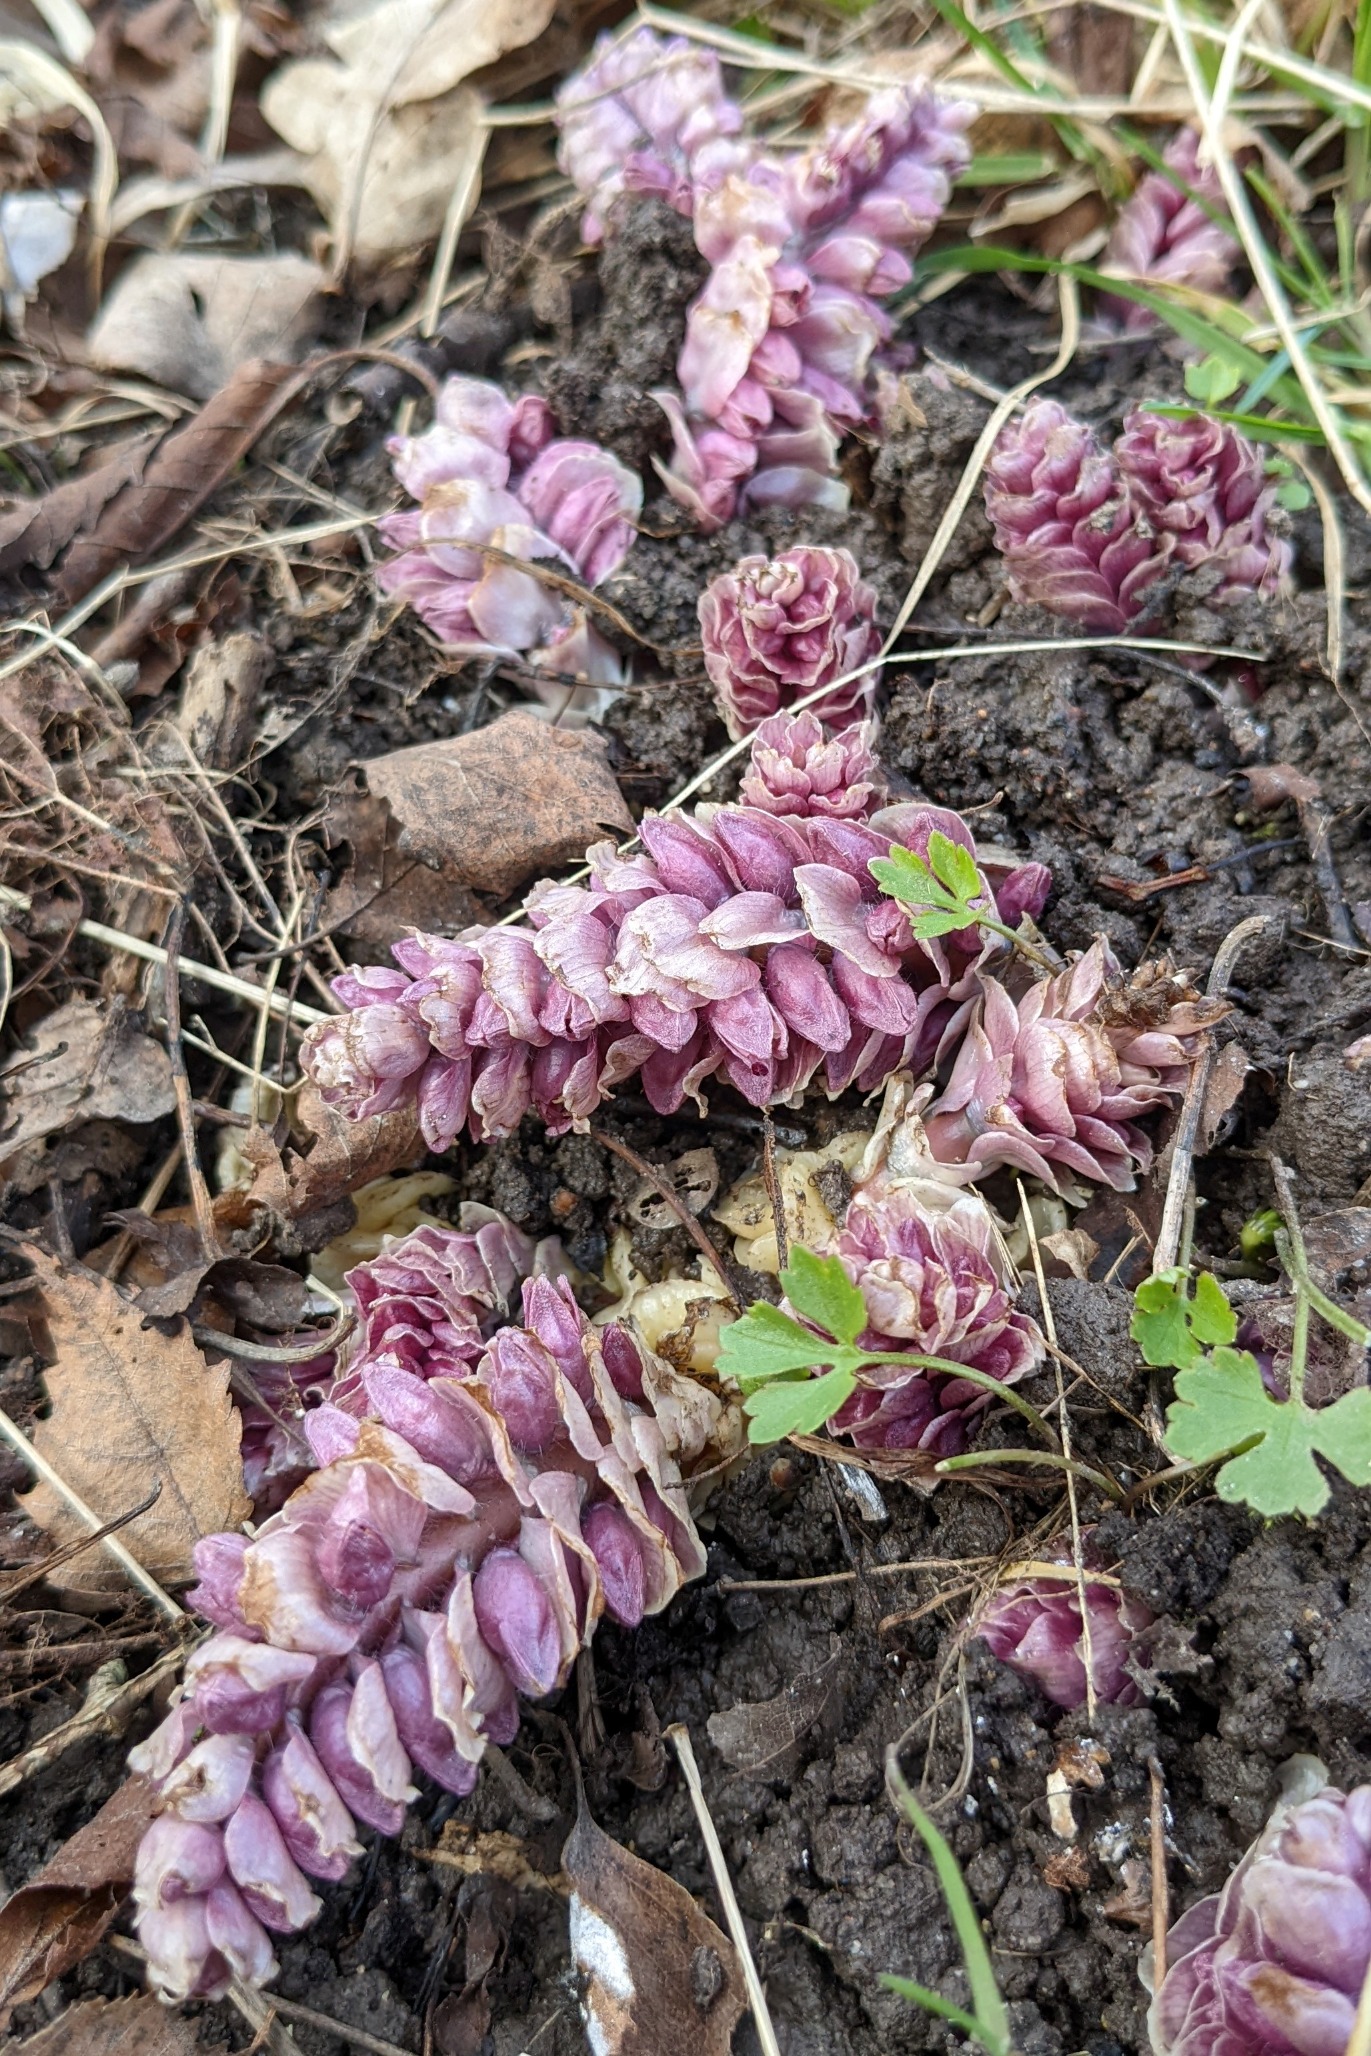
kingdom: Plantae
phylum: Tracheophyta
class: Magnoliopsida
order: Lamiales
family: Orobanchaceae
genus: Lathraea
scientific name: Lathraea squamaria
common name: Skælrod
